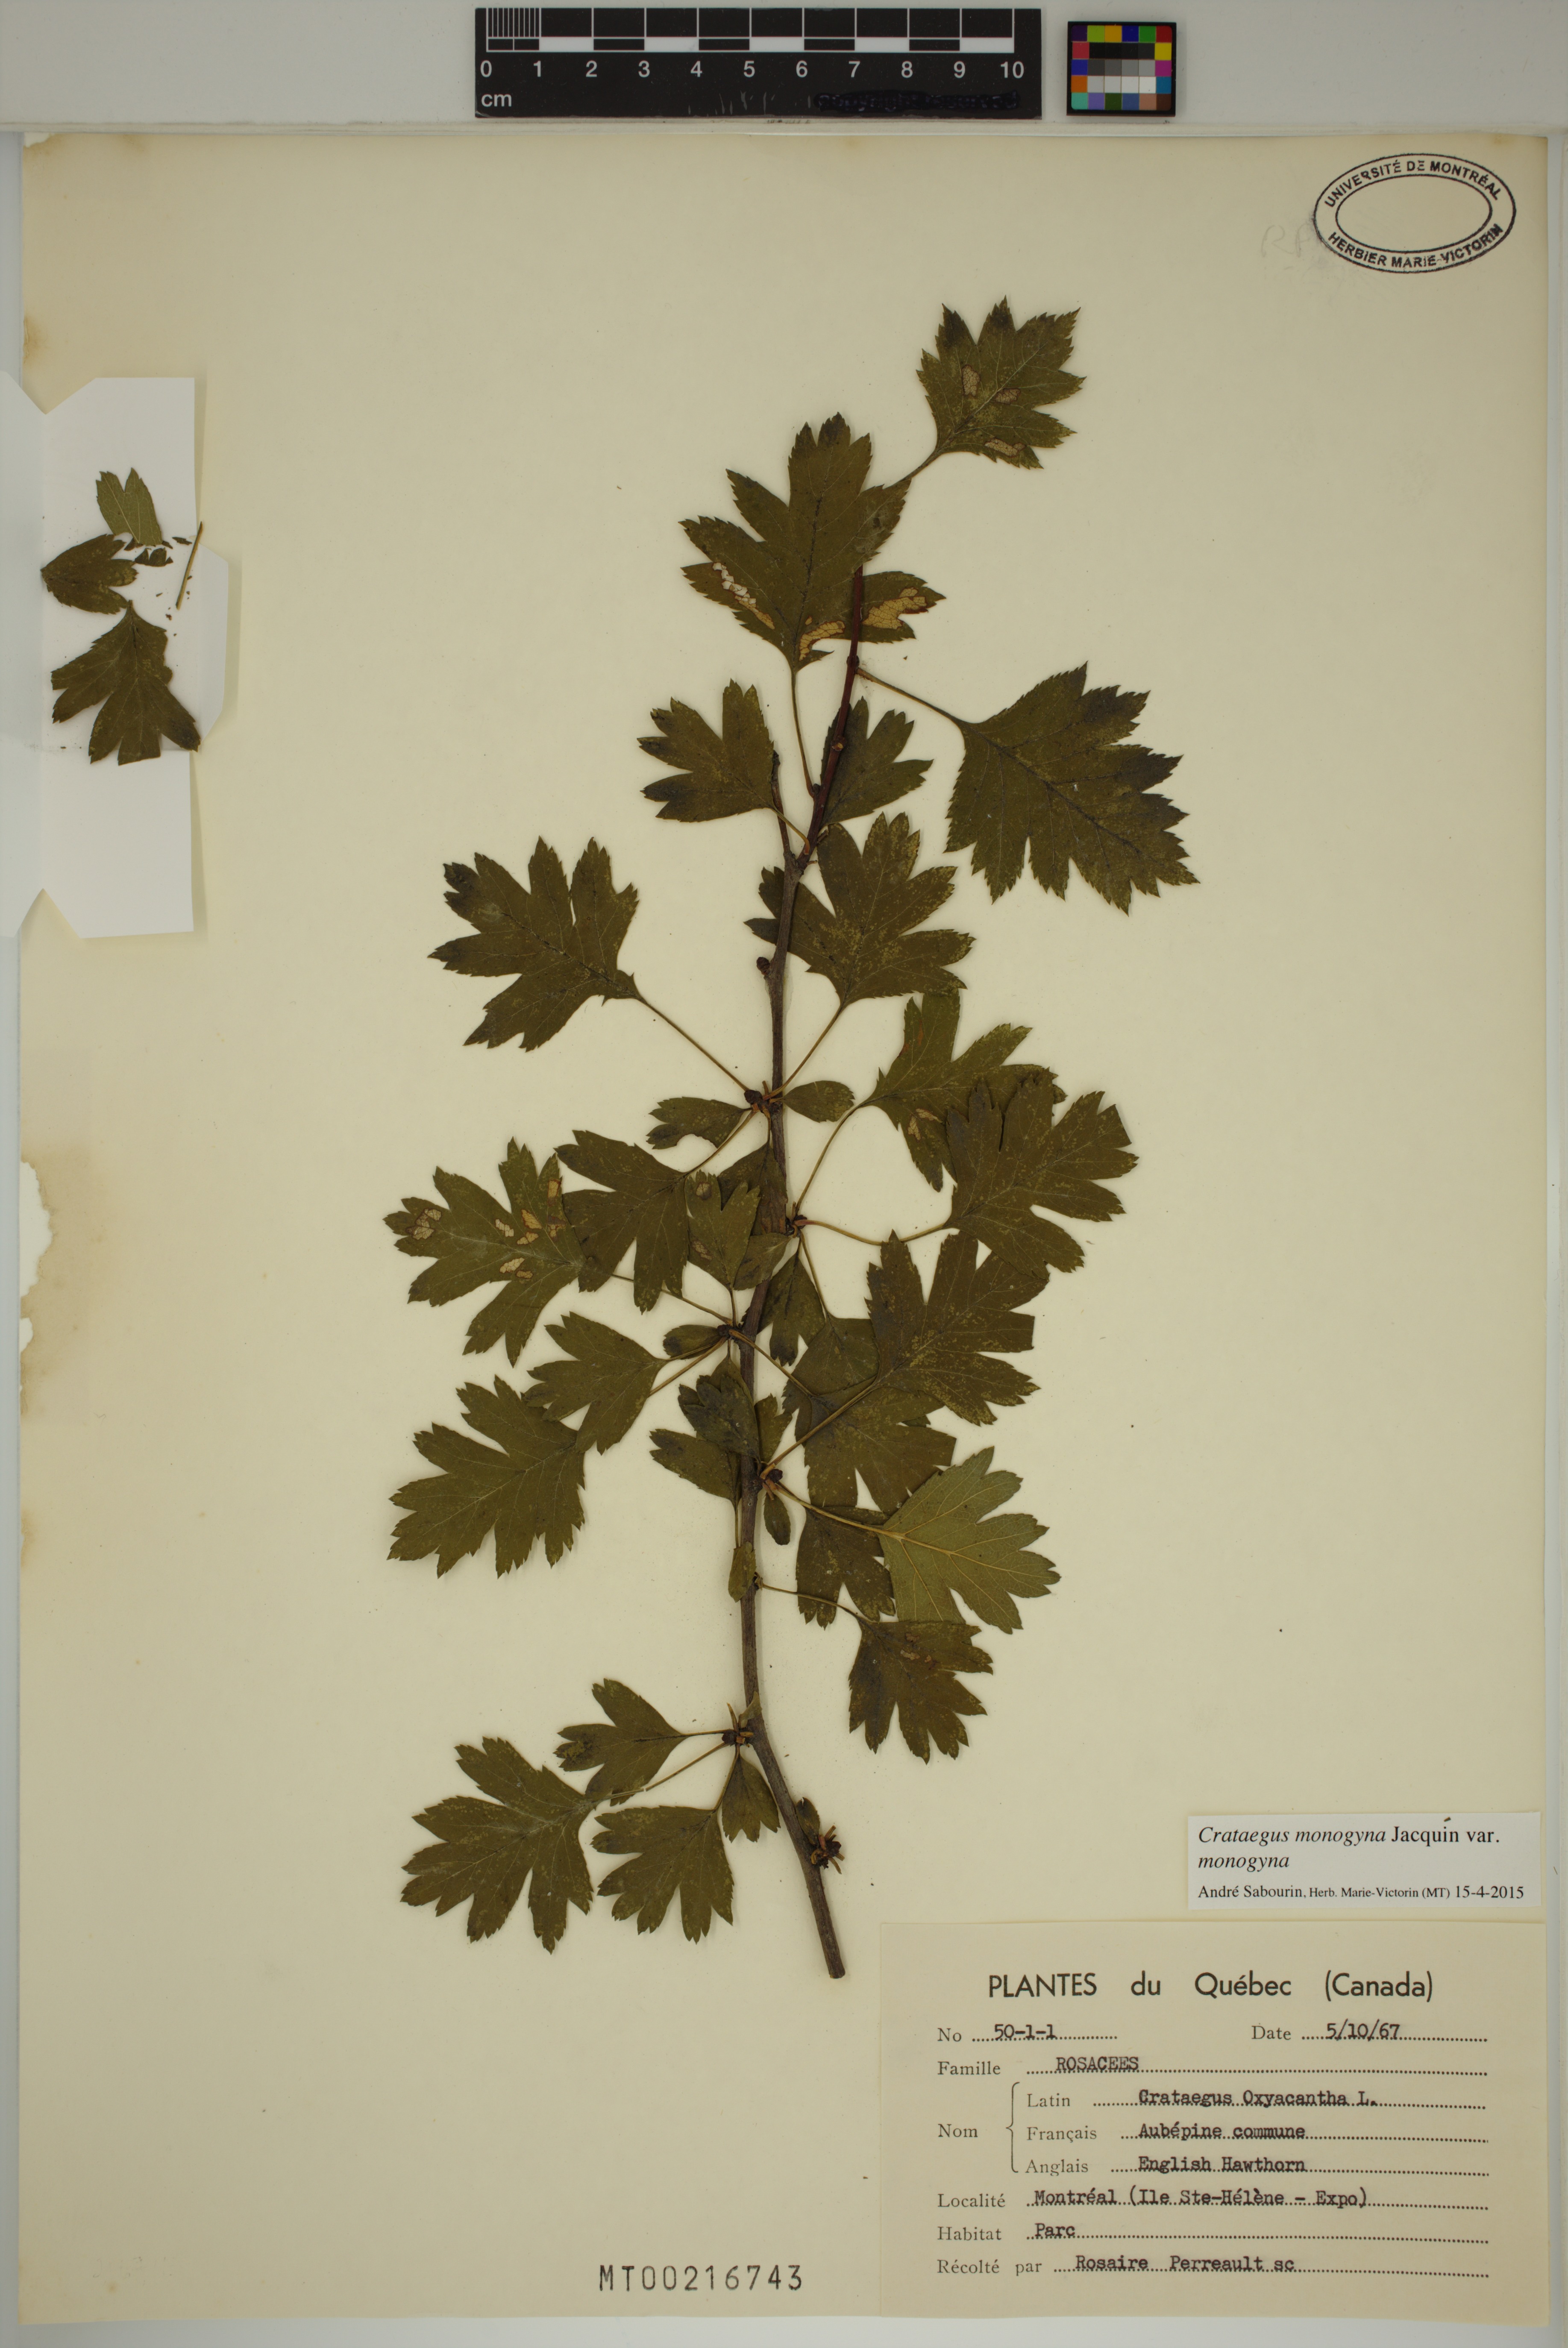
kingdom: Plantae
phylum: Tracheophyta
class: Magnoliopsida
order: Rosales
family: Rosaceae
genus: Crataegus
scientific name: Crataegus monogyna
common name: Hawthorn
